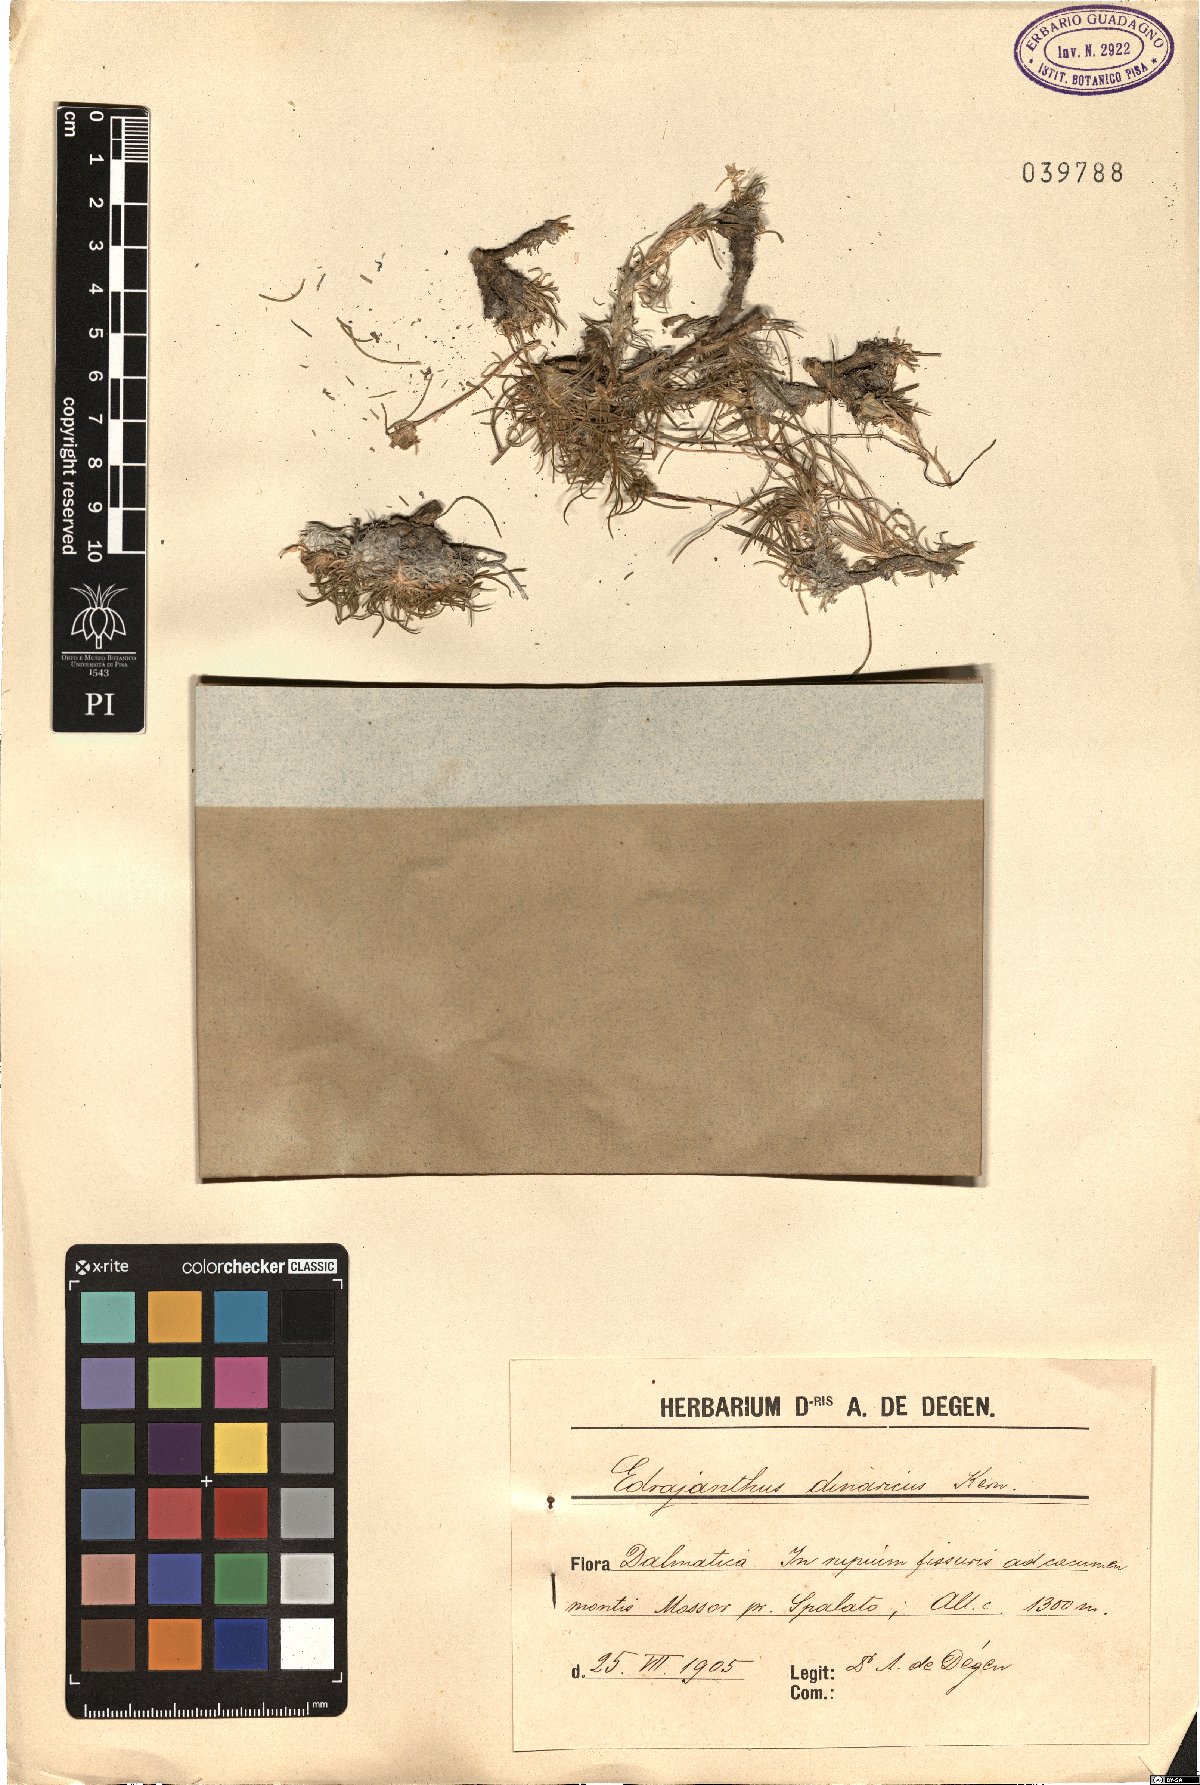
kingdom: Plantae
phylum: Tracheophyta
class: Magnoliopsida
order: Asterales
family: Campanulaceae
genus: Edraianthus
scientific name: Edraianthus dinaricus
